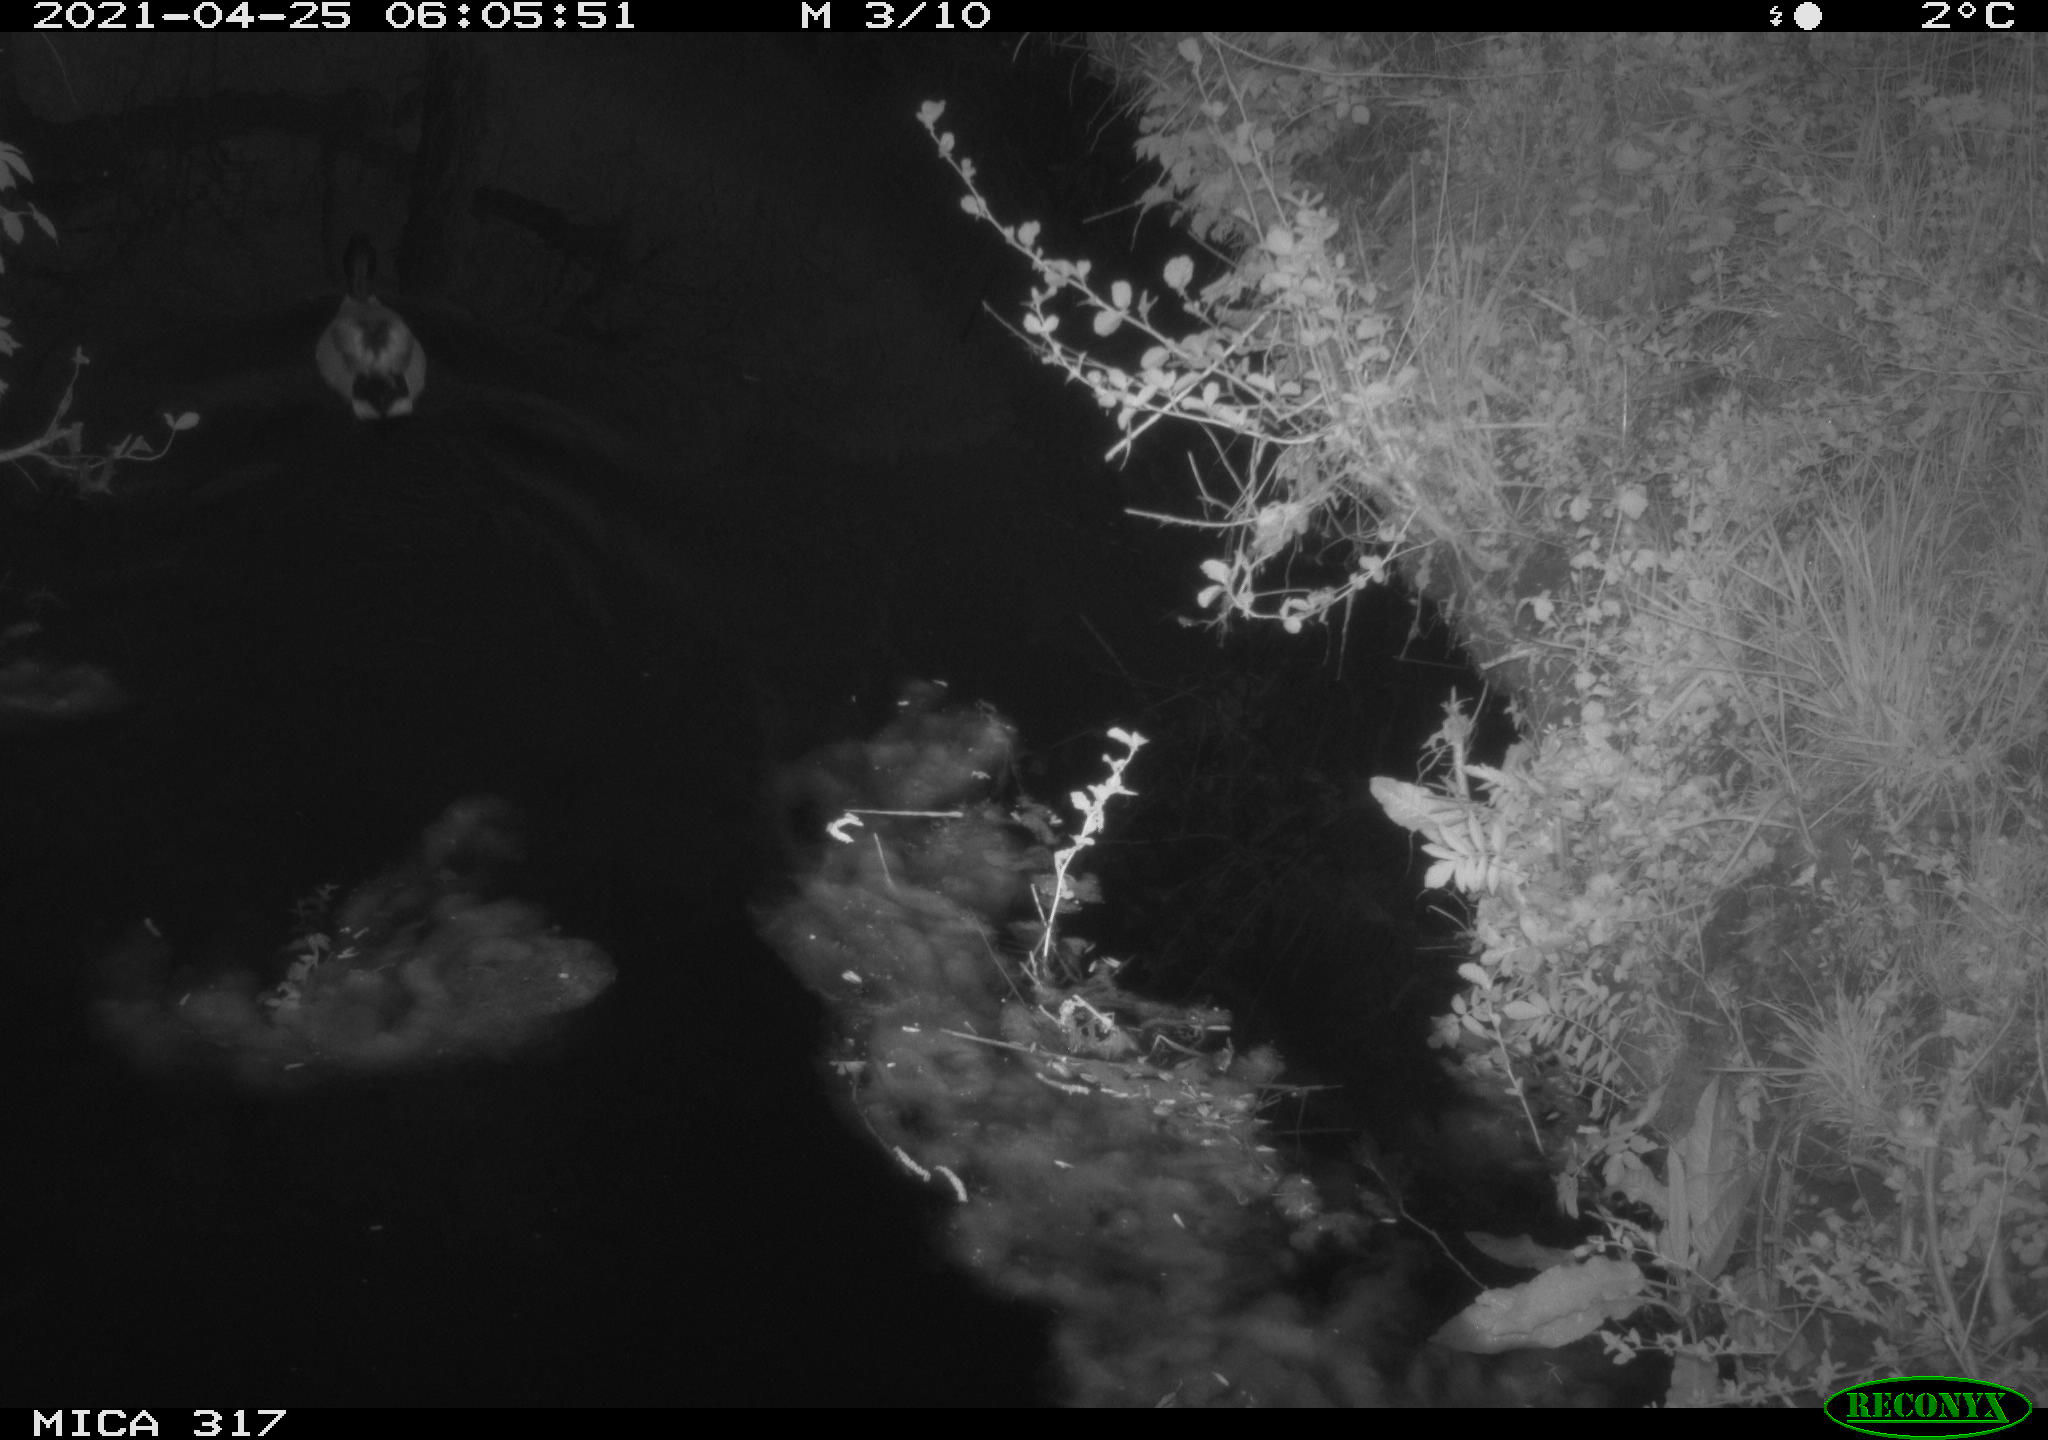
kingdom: Animalia
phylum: Chordata
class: Aves
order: Anseriformes
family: Anatidae
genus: Anas
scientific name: Anas
